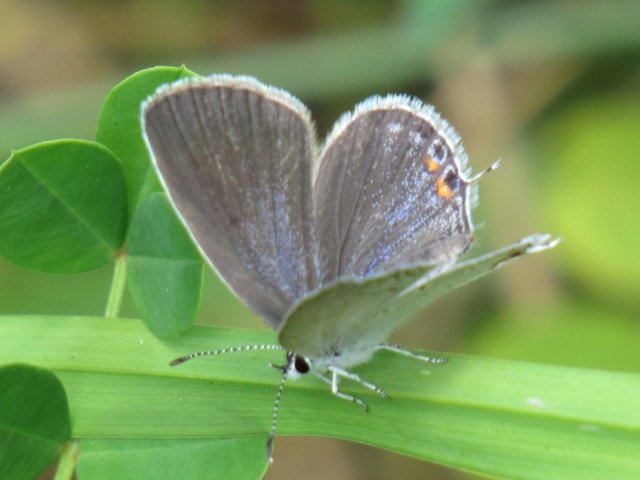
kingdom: Animalia
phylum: Arthropoda
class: Insecta
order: Lepidoptera
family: Lycaenidae
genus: Elkalyce
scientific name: Elkalyce comyntas
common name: Eastern Tailed-Blue
